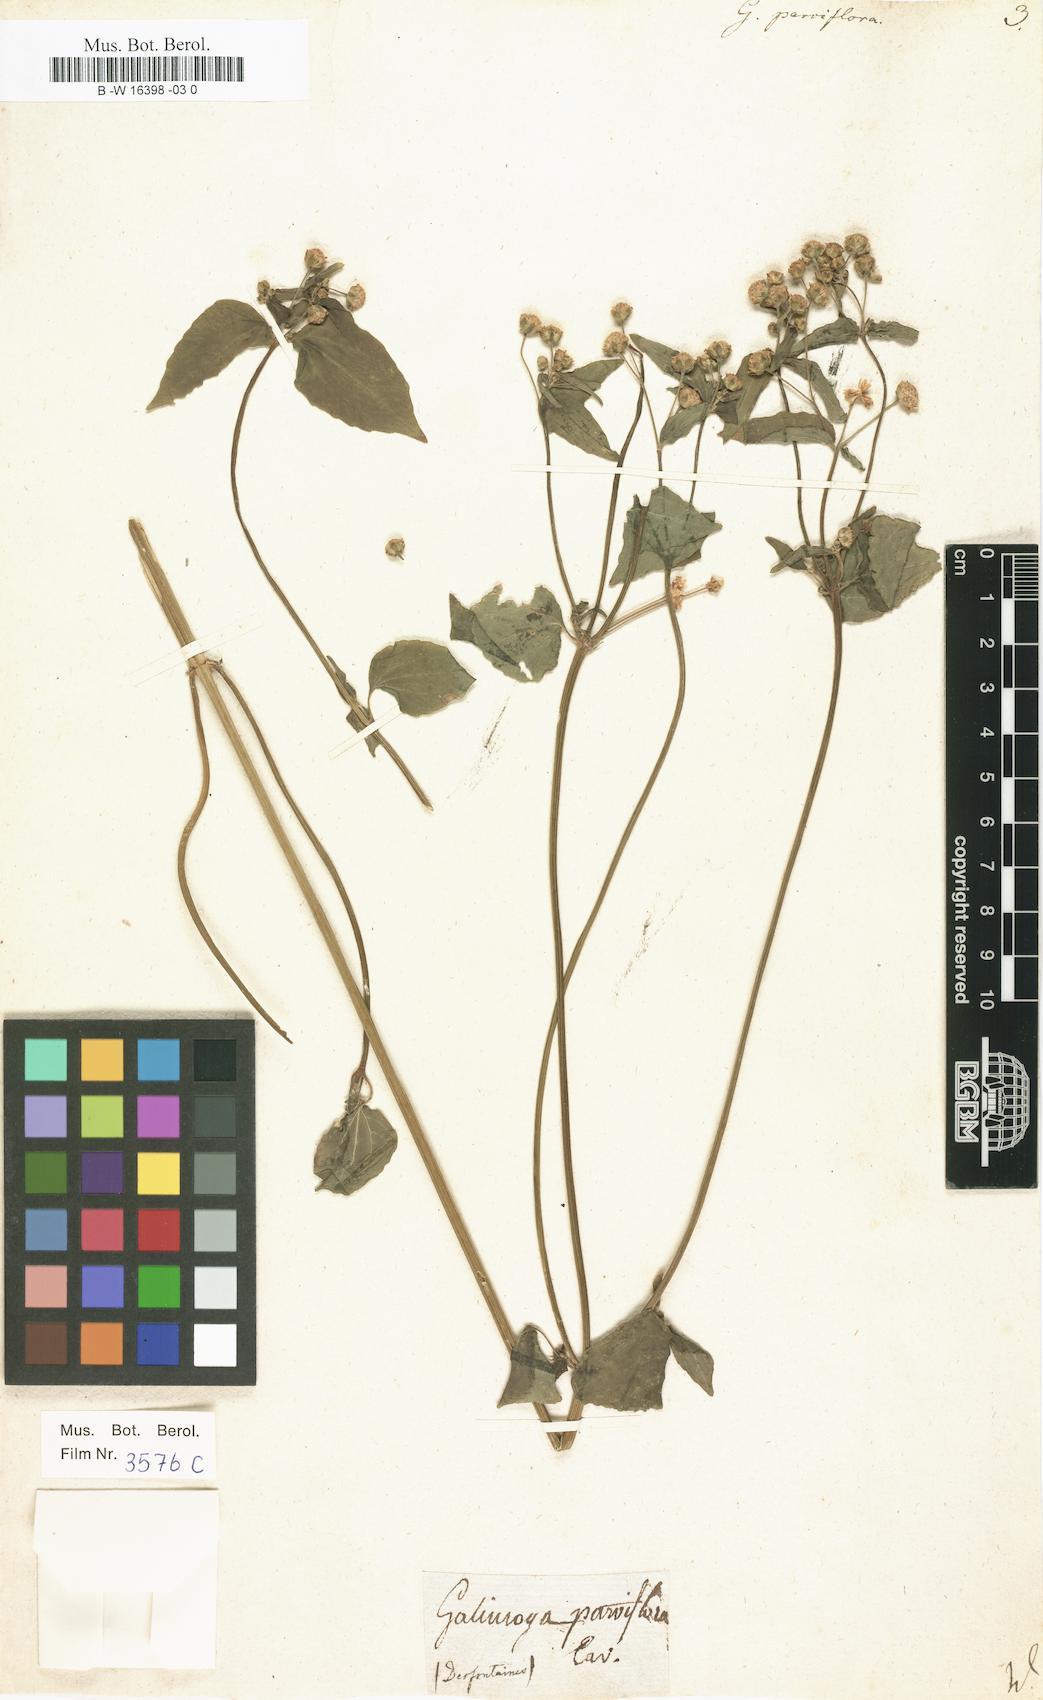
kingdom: Plantae
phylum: Tracheophyta
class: Magnoliopsida
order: Asterales
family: Asteraceae
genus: Galinsoga
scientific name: Galinsoga parviflora
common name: Gallant soldier
